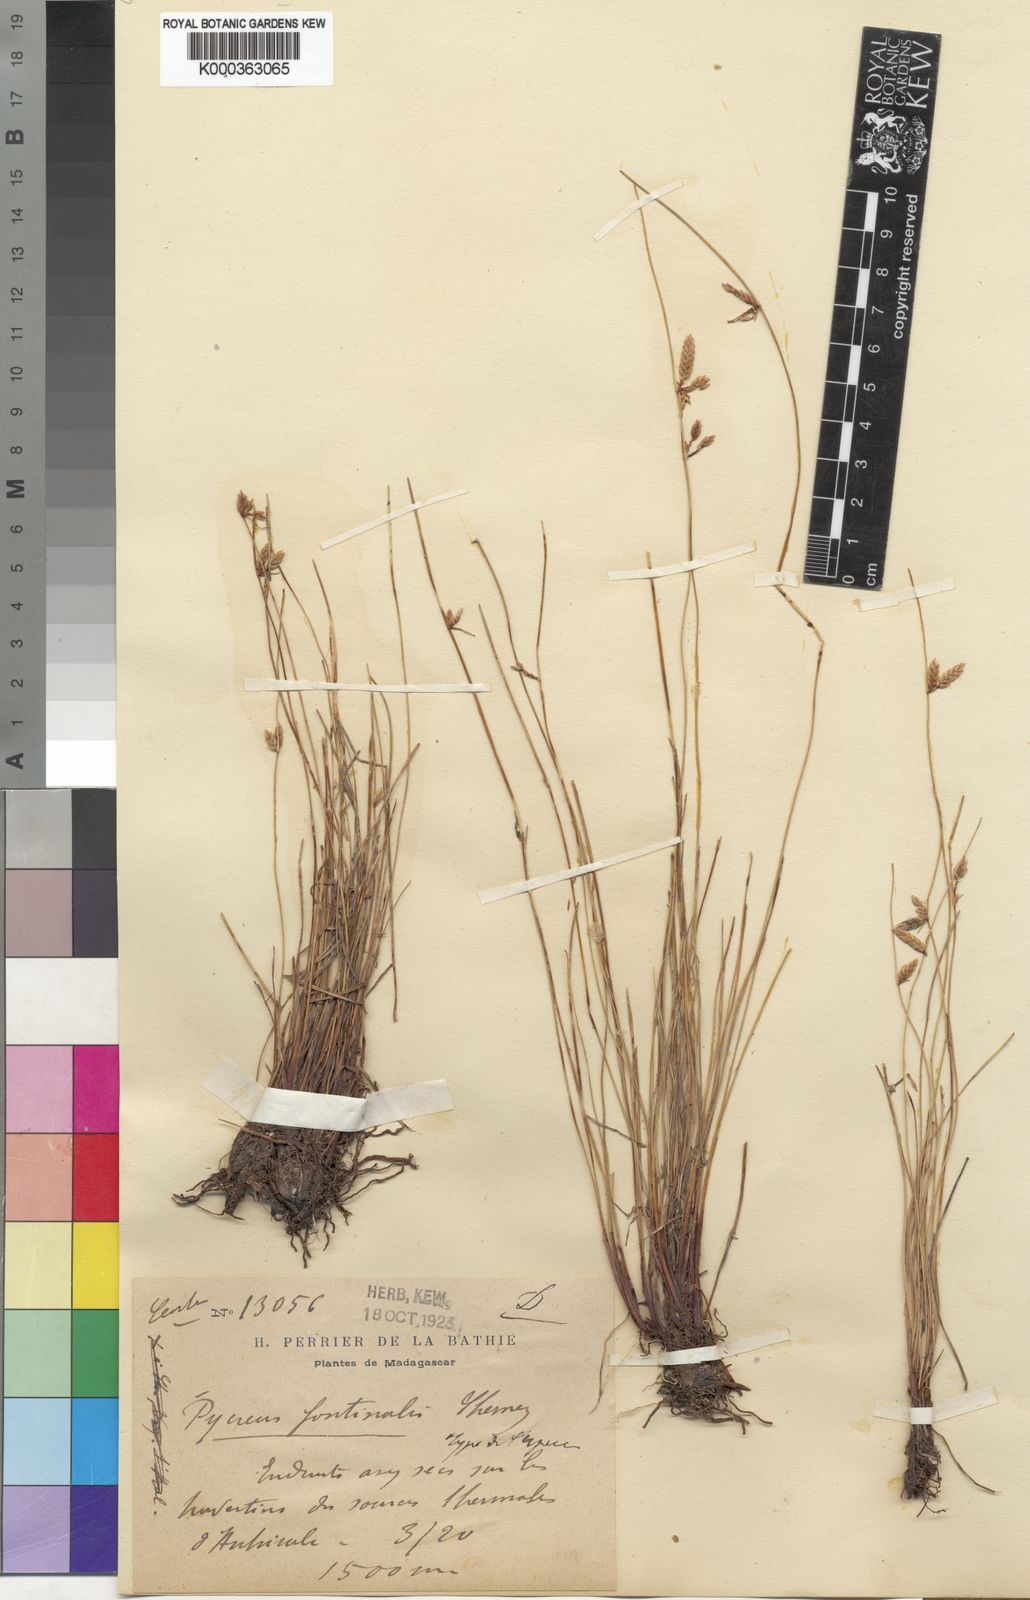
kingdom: Plantae
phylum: Tracheophyta
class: Liliopsida
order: Poales
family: Cyperaceae
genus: Cyperus
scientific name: Cyperus fontinalis
